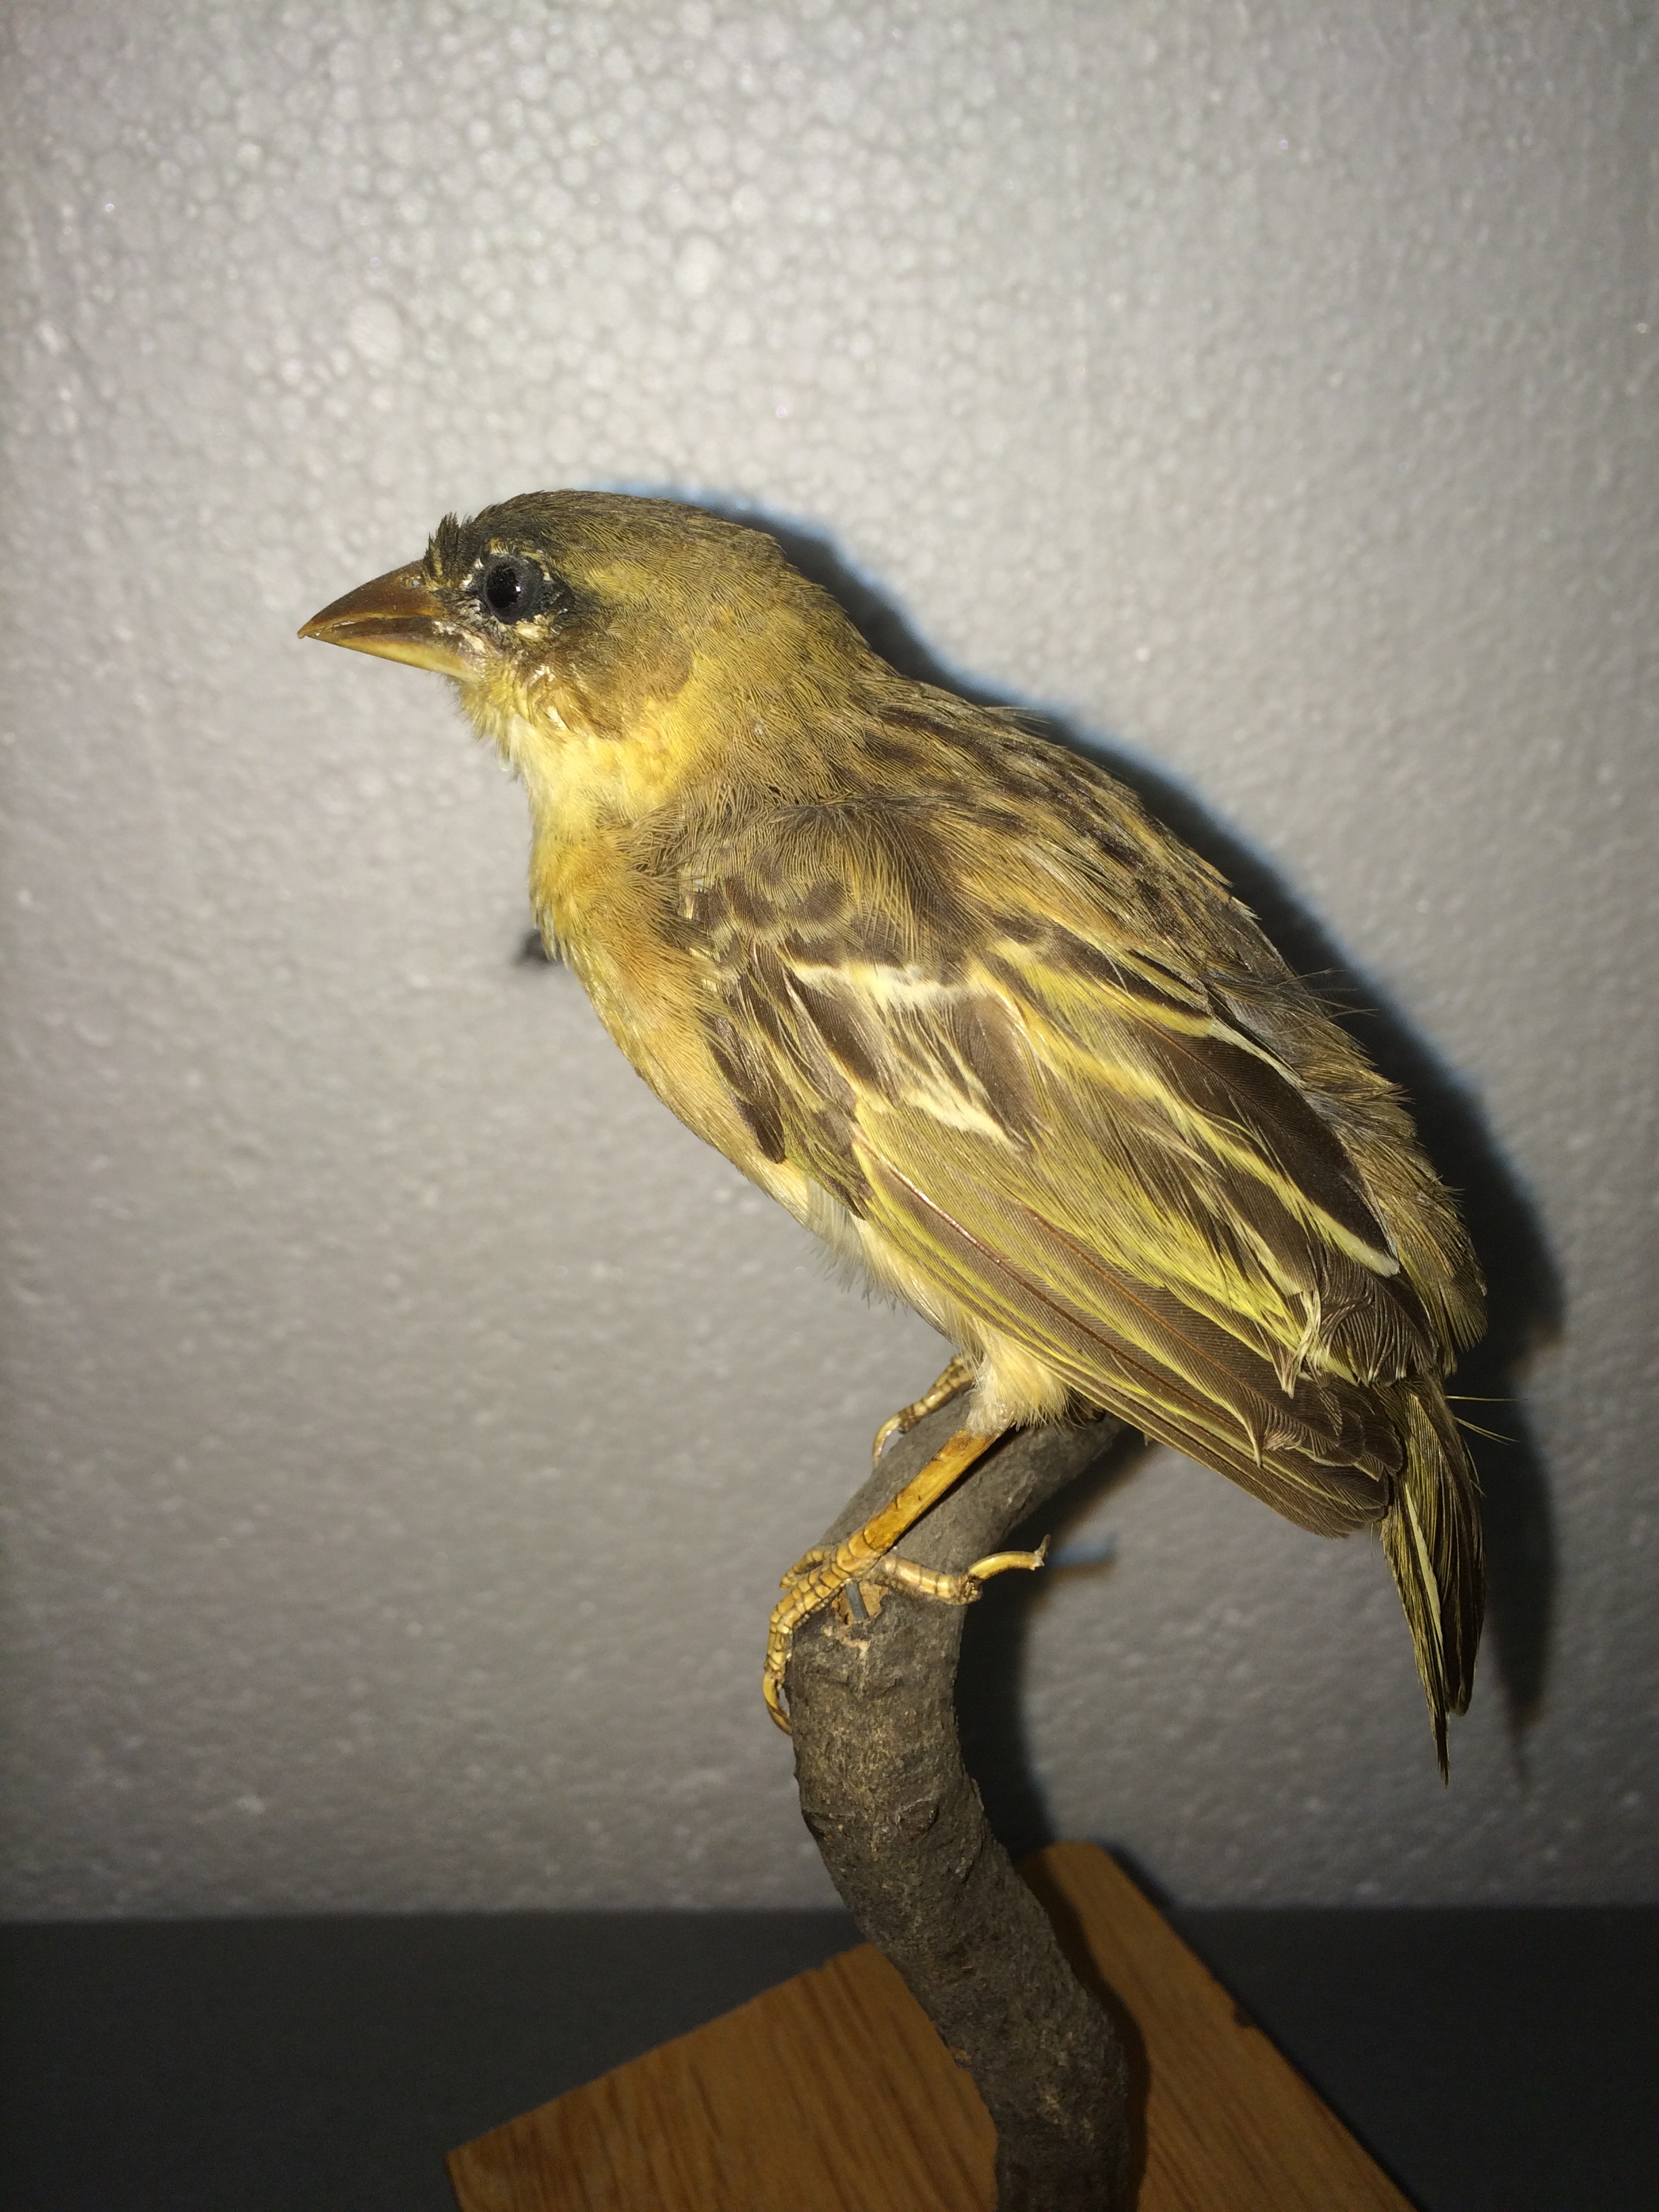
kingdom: Animalia
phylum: Chordata
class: Aves
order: Passeriformes
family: Ploceidae
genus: Ploceus
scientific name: Ploceus melanocephalus
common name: Black-headed weaver
